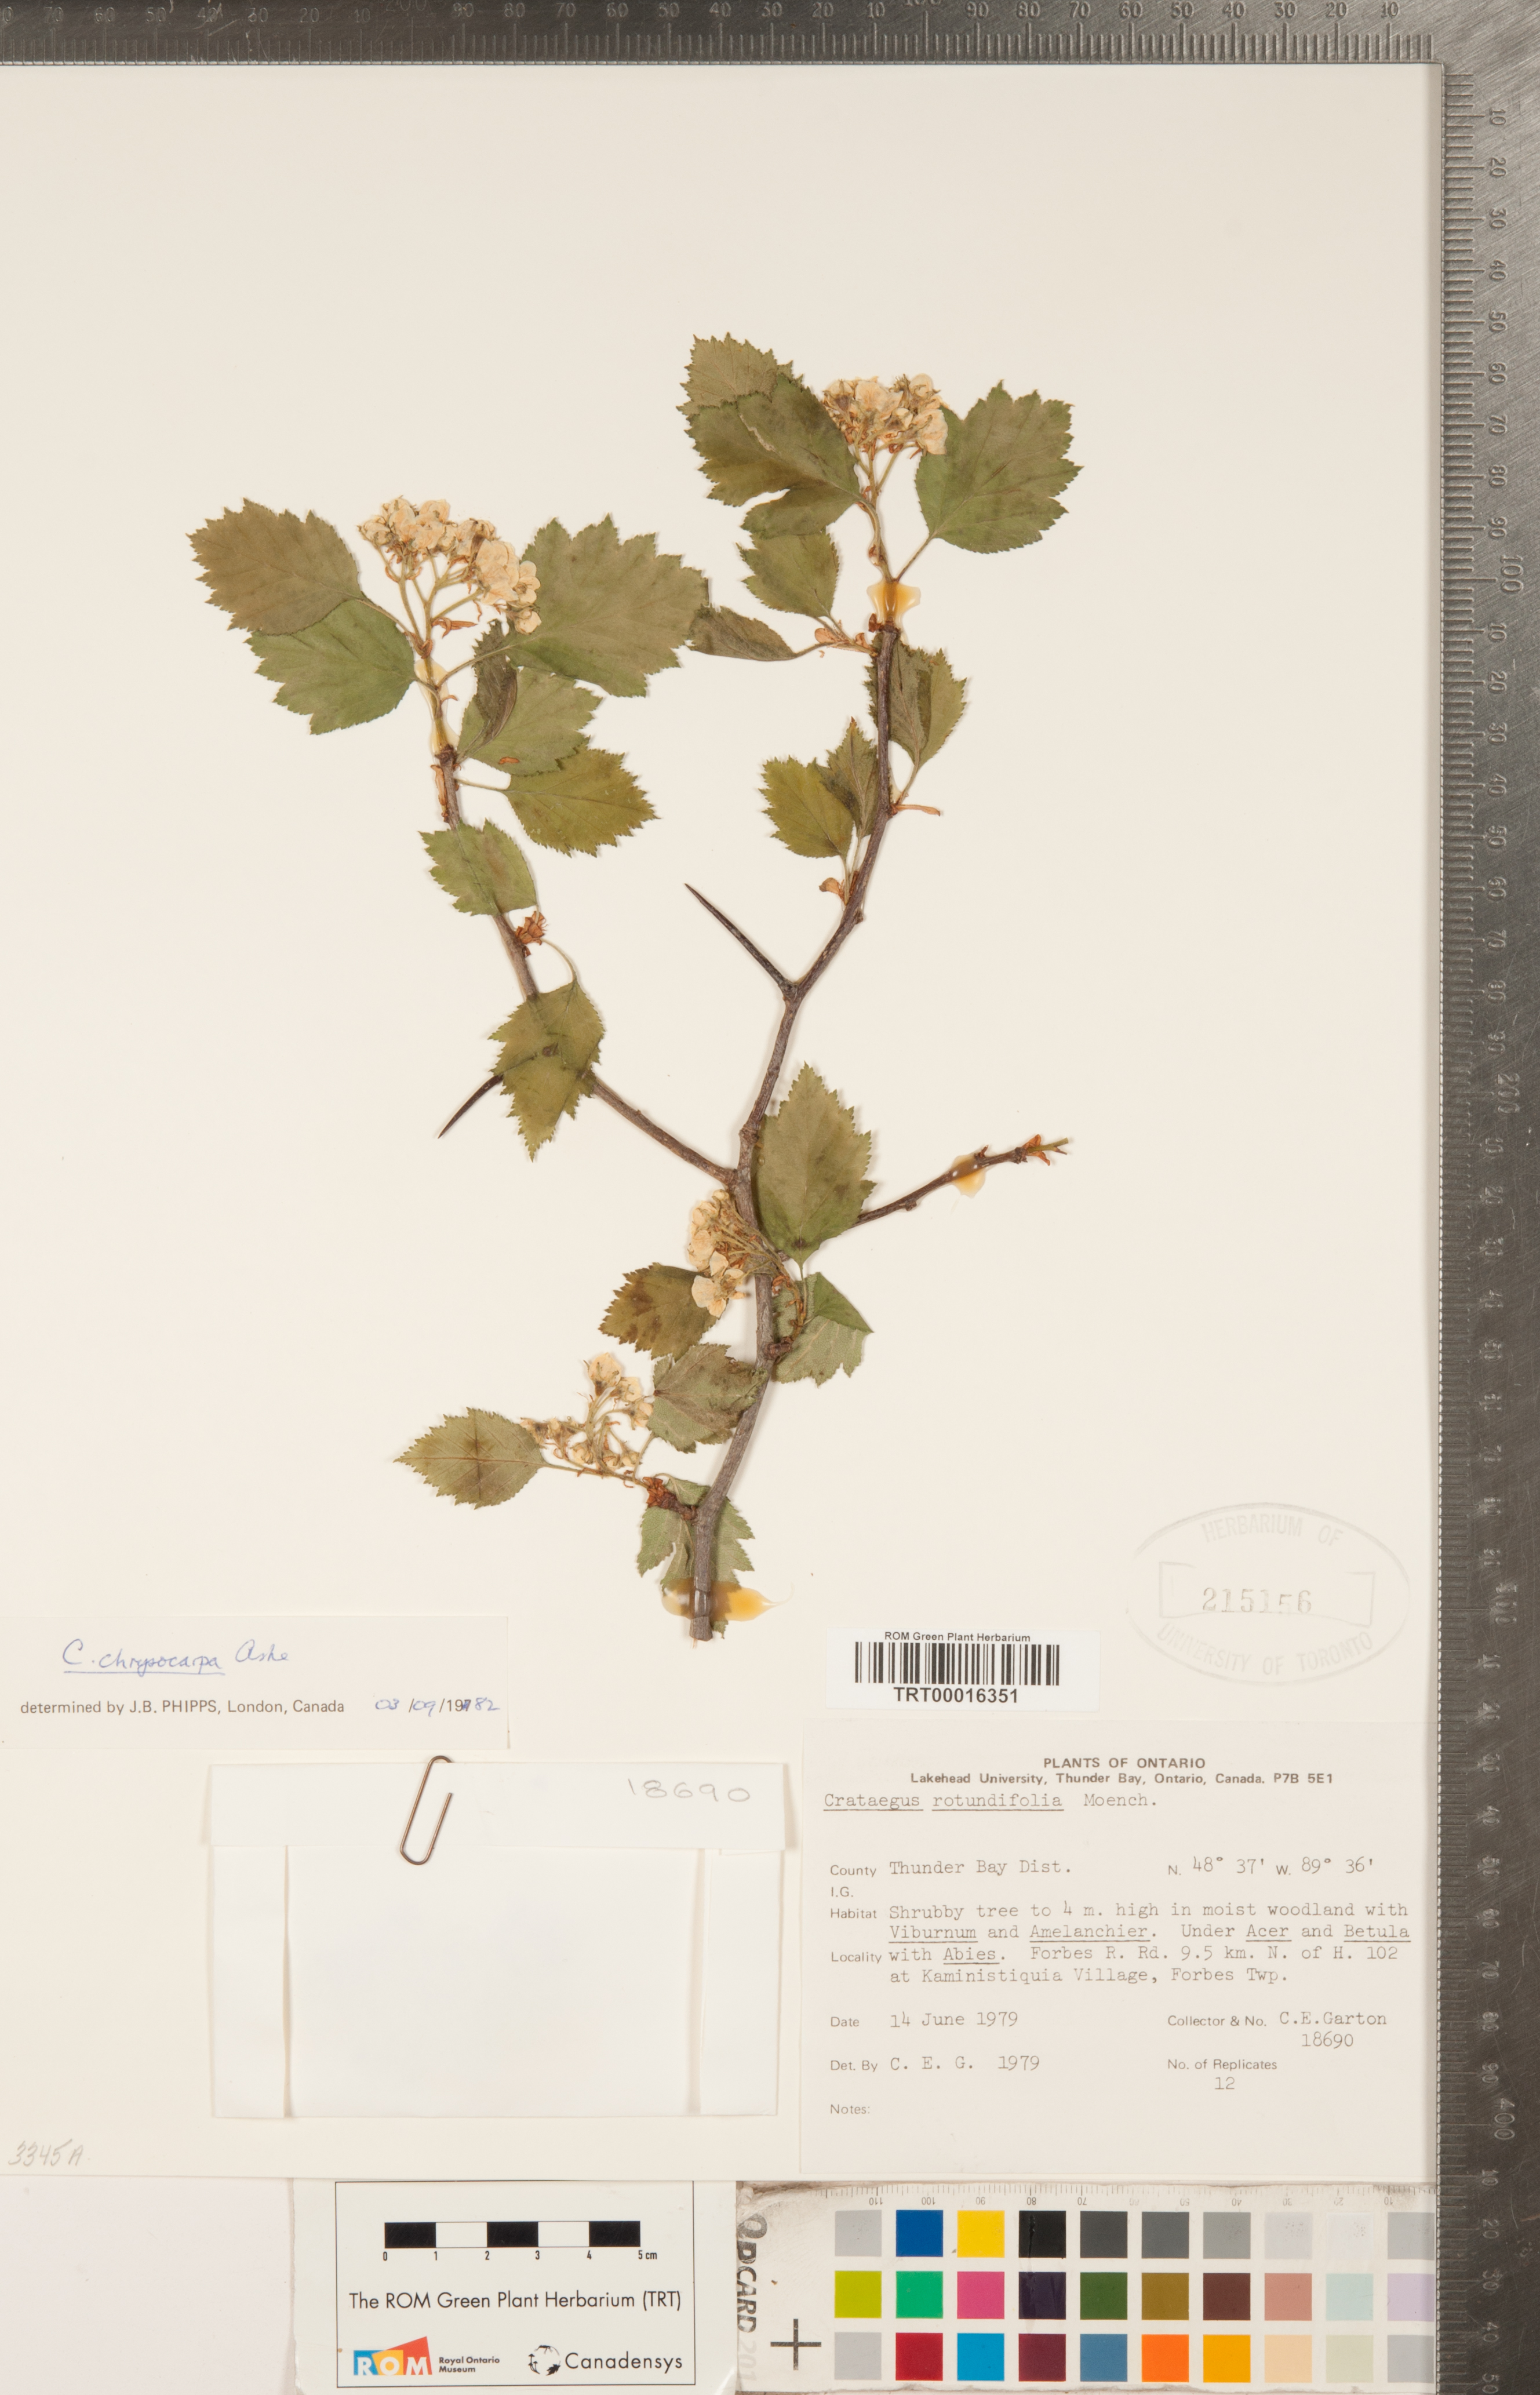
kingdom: Plantae
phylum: Tracheophyta
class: Magnoliopsida
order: Rosales
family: Rosaceae
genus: Crataegus
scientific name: Crataegus chrysocarpa
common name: Fire-berry hawthorn
